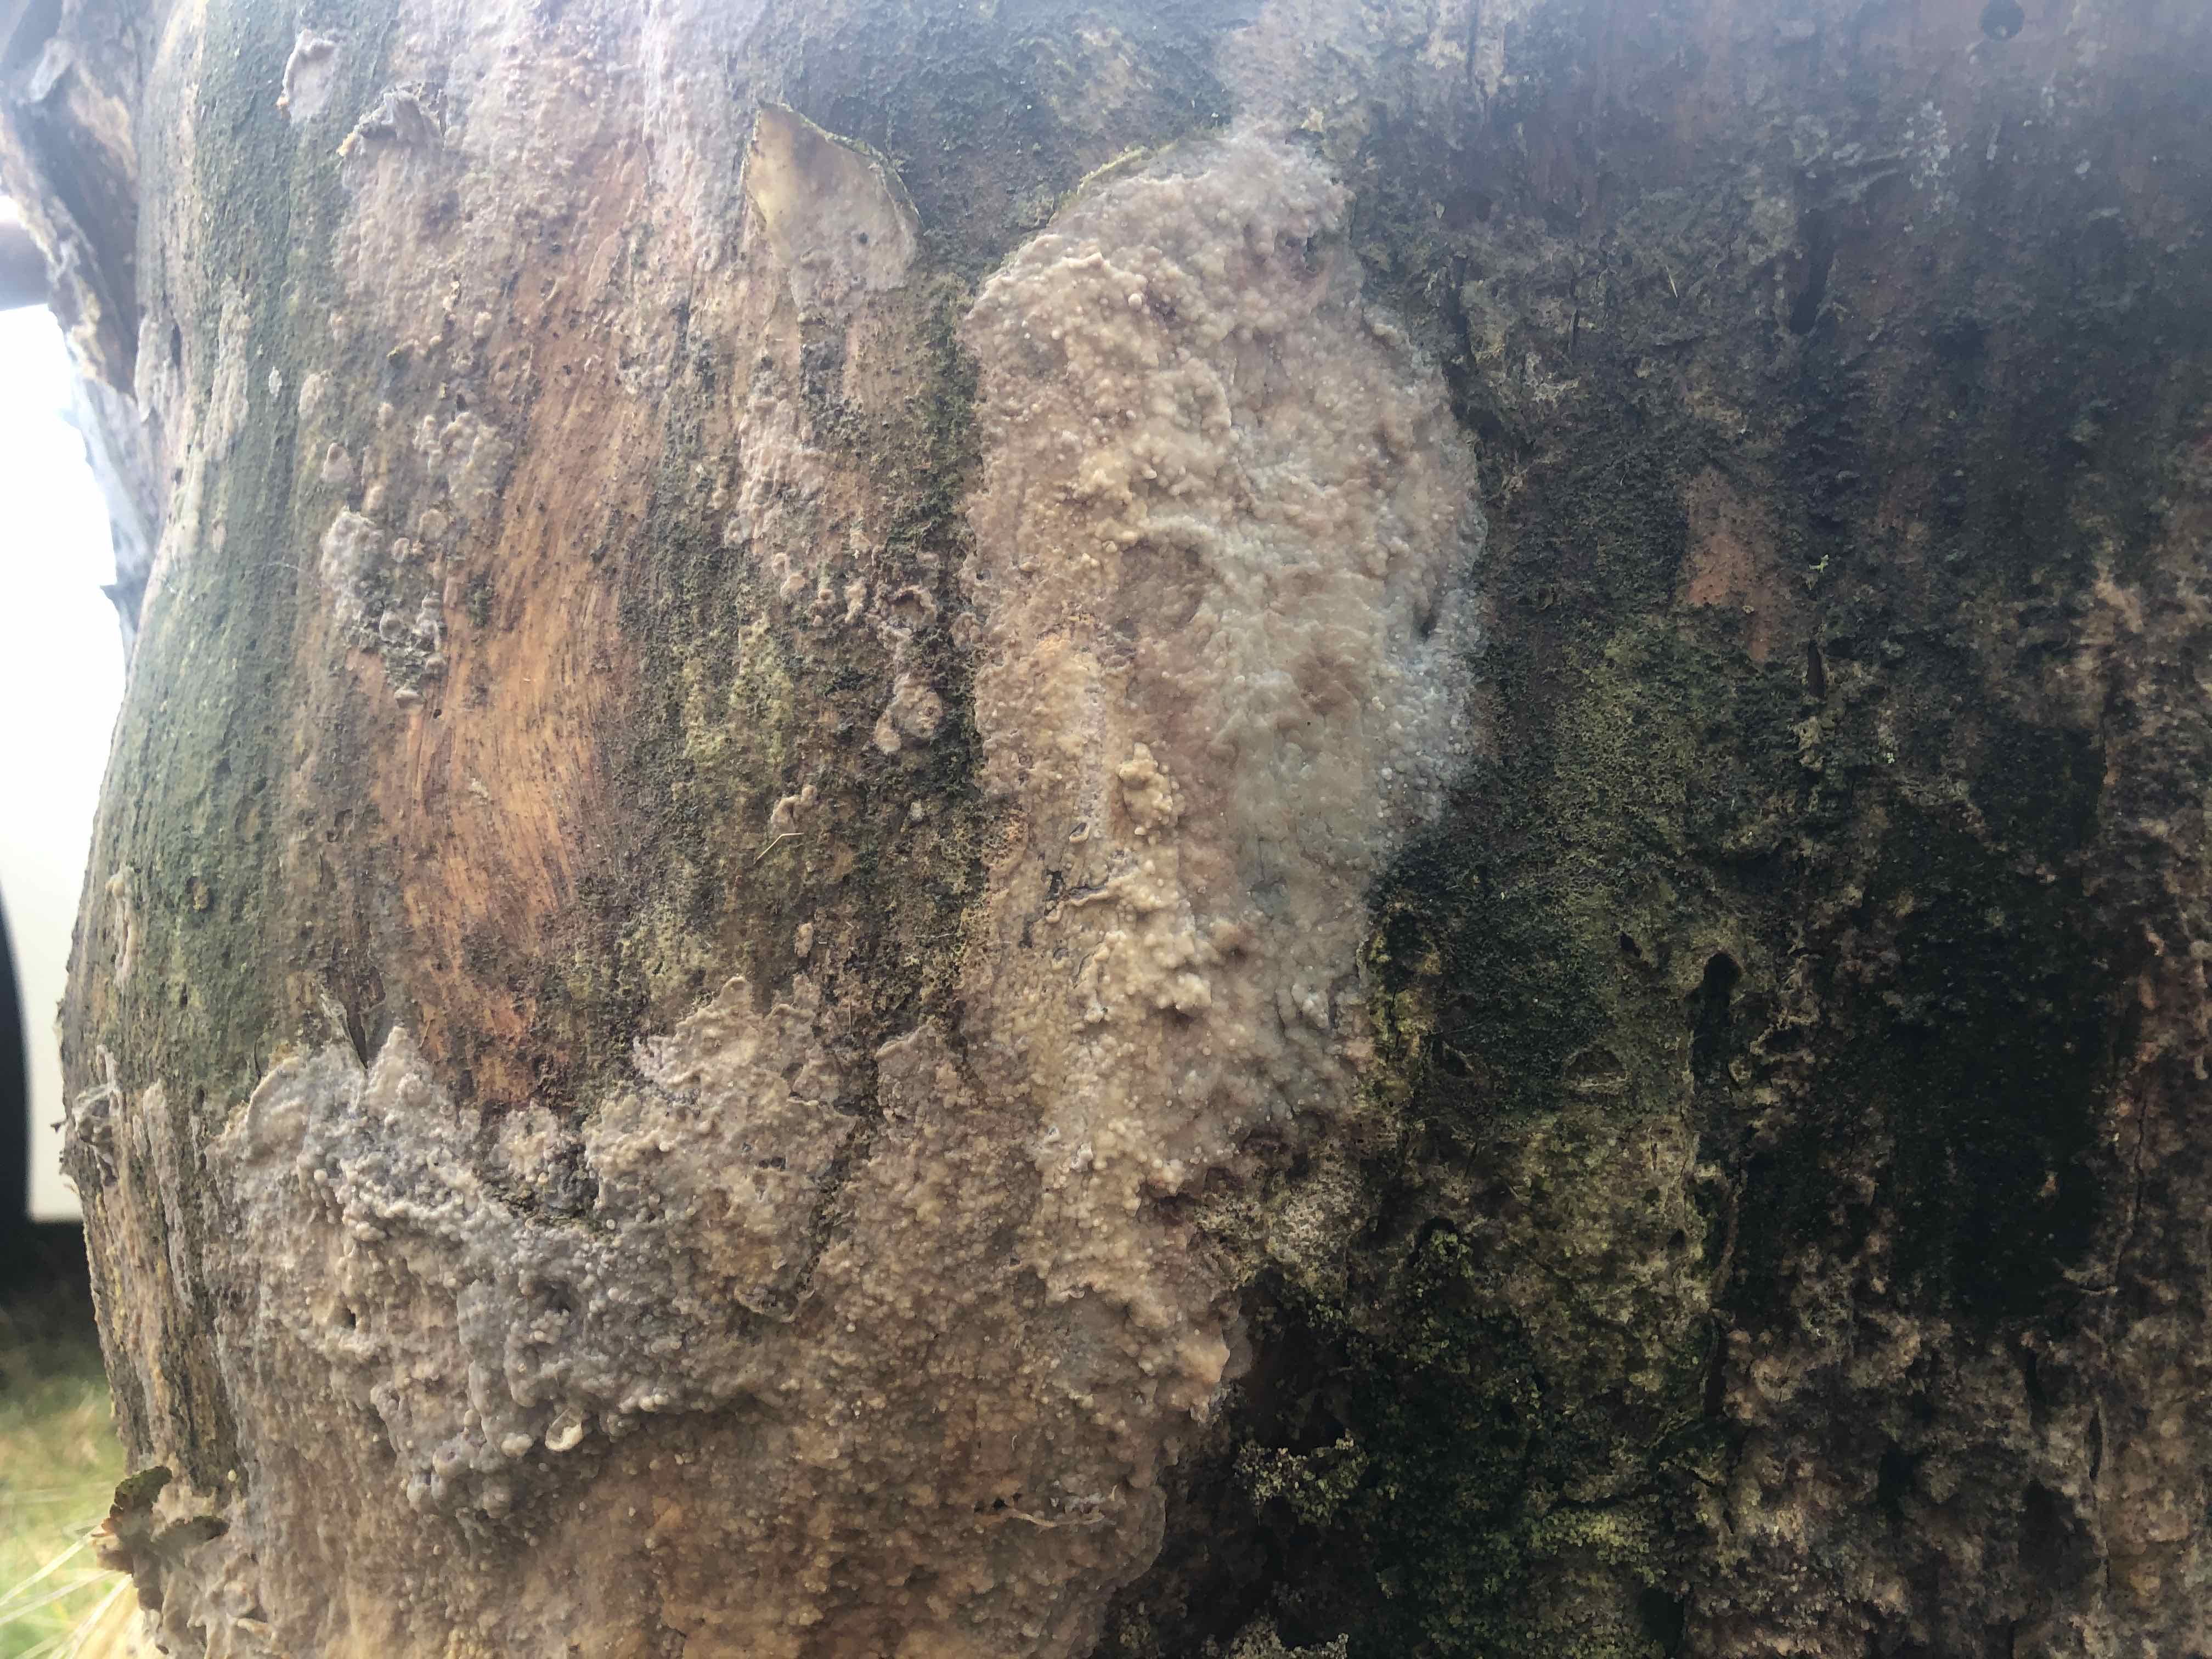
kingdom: Fungi
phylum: Basidiomycota
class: Agaricomycetes
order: Polyporales
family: Phanerochaetaceae
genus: Phlebiopsis
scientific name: Phlebiopsis gigantea
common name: kæmpebarksvamp
